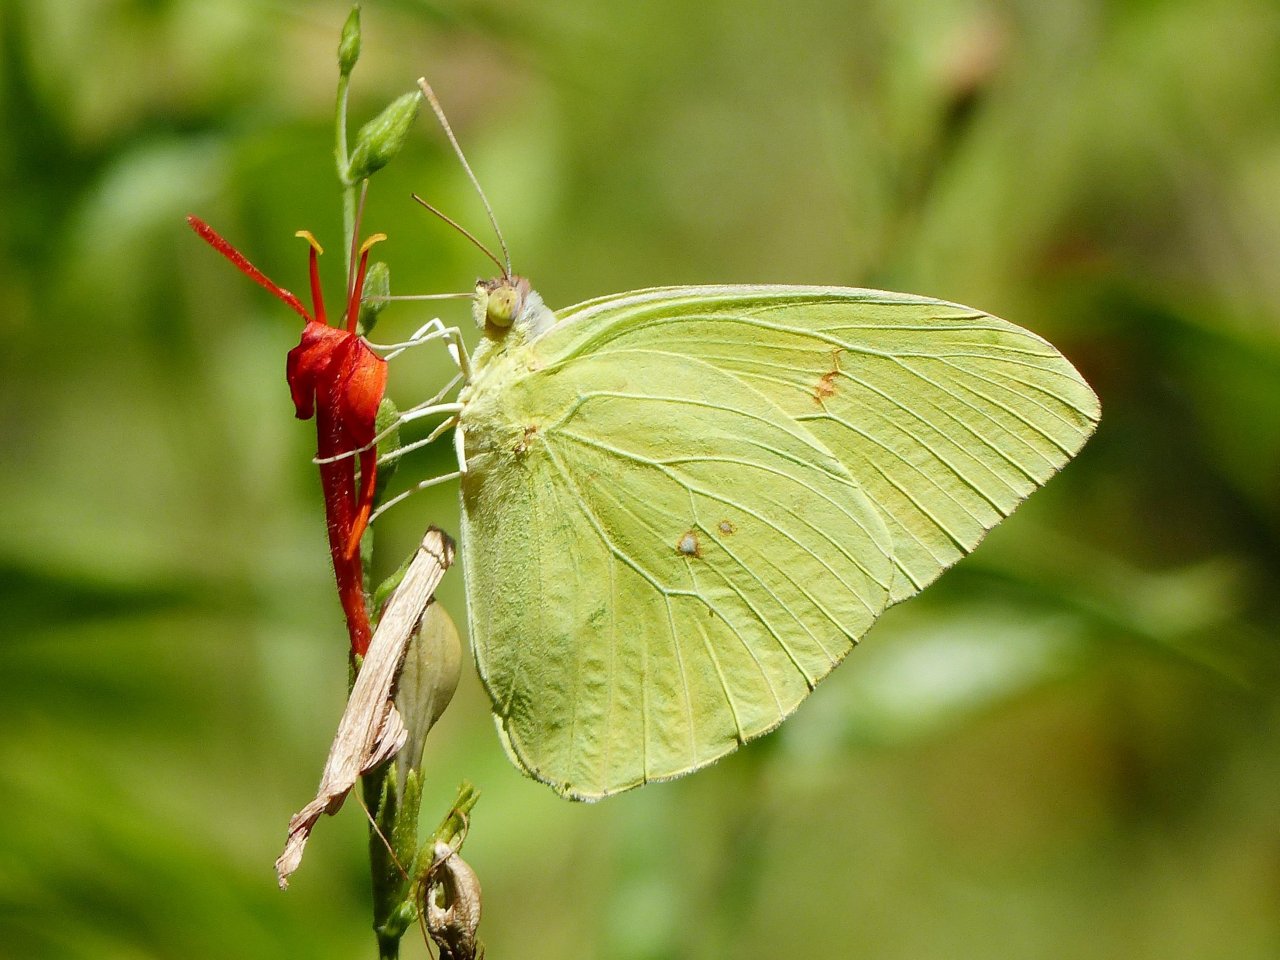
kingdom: Animalia
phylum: Arthropoda
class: Insecta
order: Lepidoptera
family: Pieridae
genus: Phoebis
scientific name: Phoebis sennae
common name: Cloudless Sulphur
